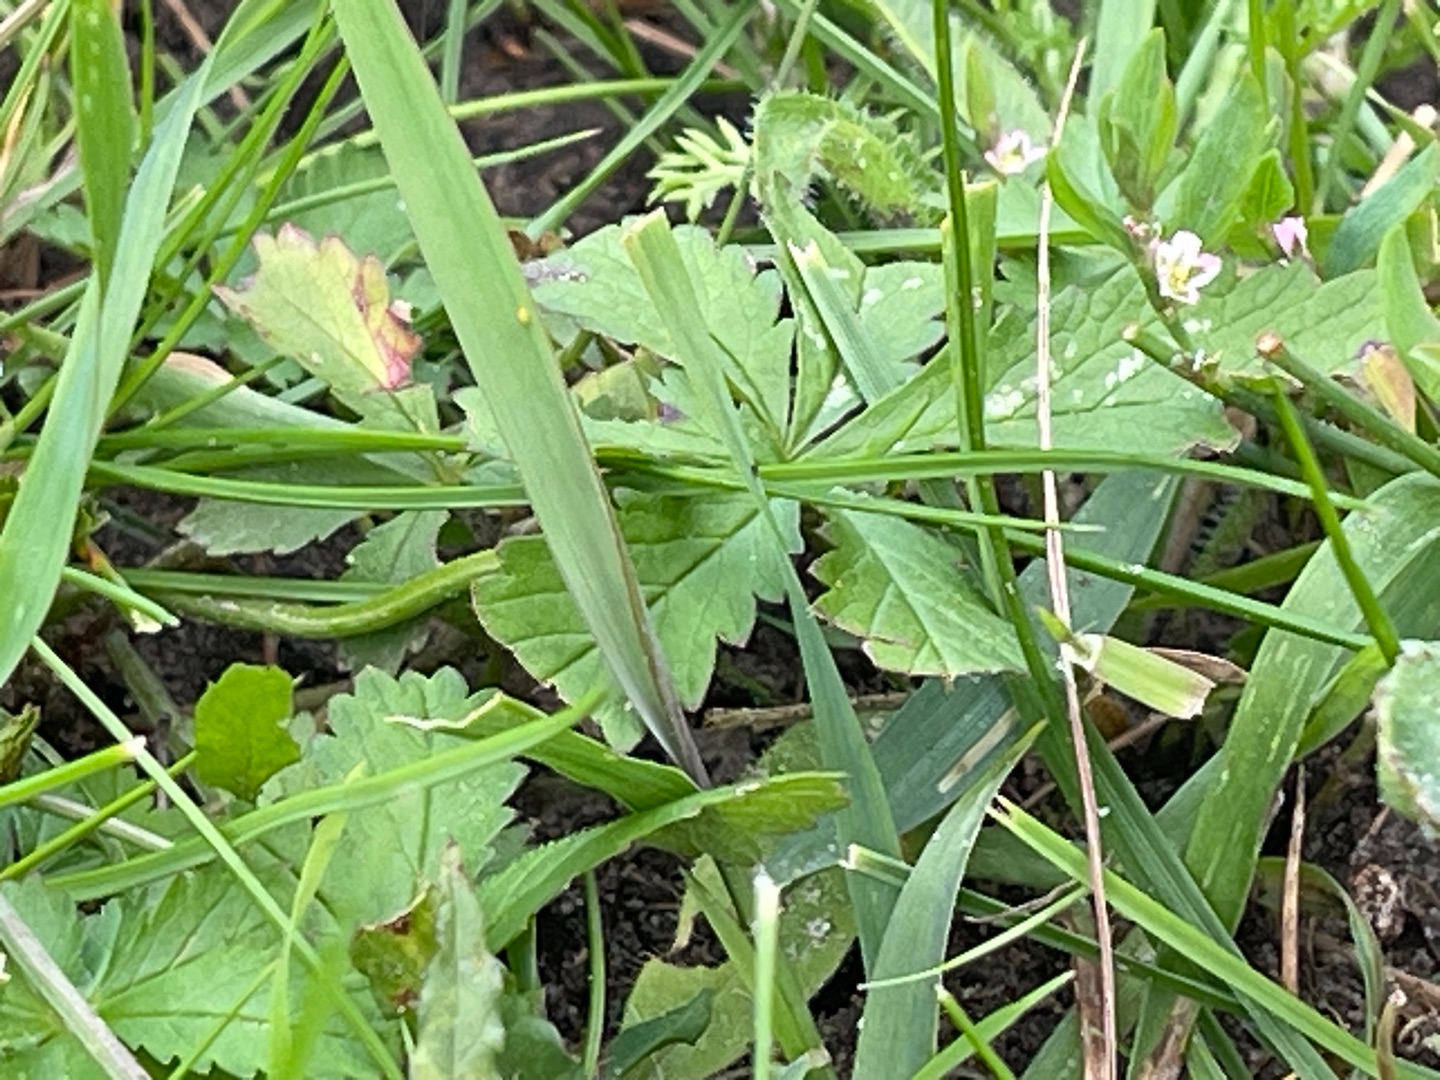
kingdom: Plantae
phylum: Tracheophyta
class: Magnoliopsida
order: Rosales
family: Rosaceae
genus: Potentilla
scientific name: Potentilla reptans
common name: Krybende potentil
